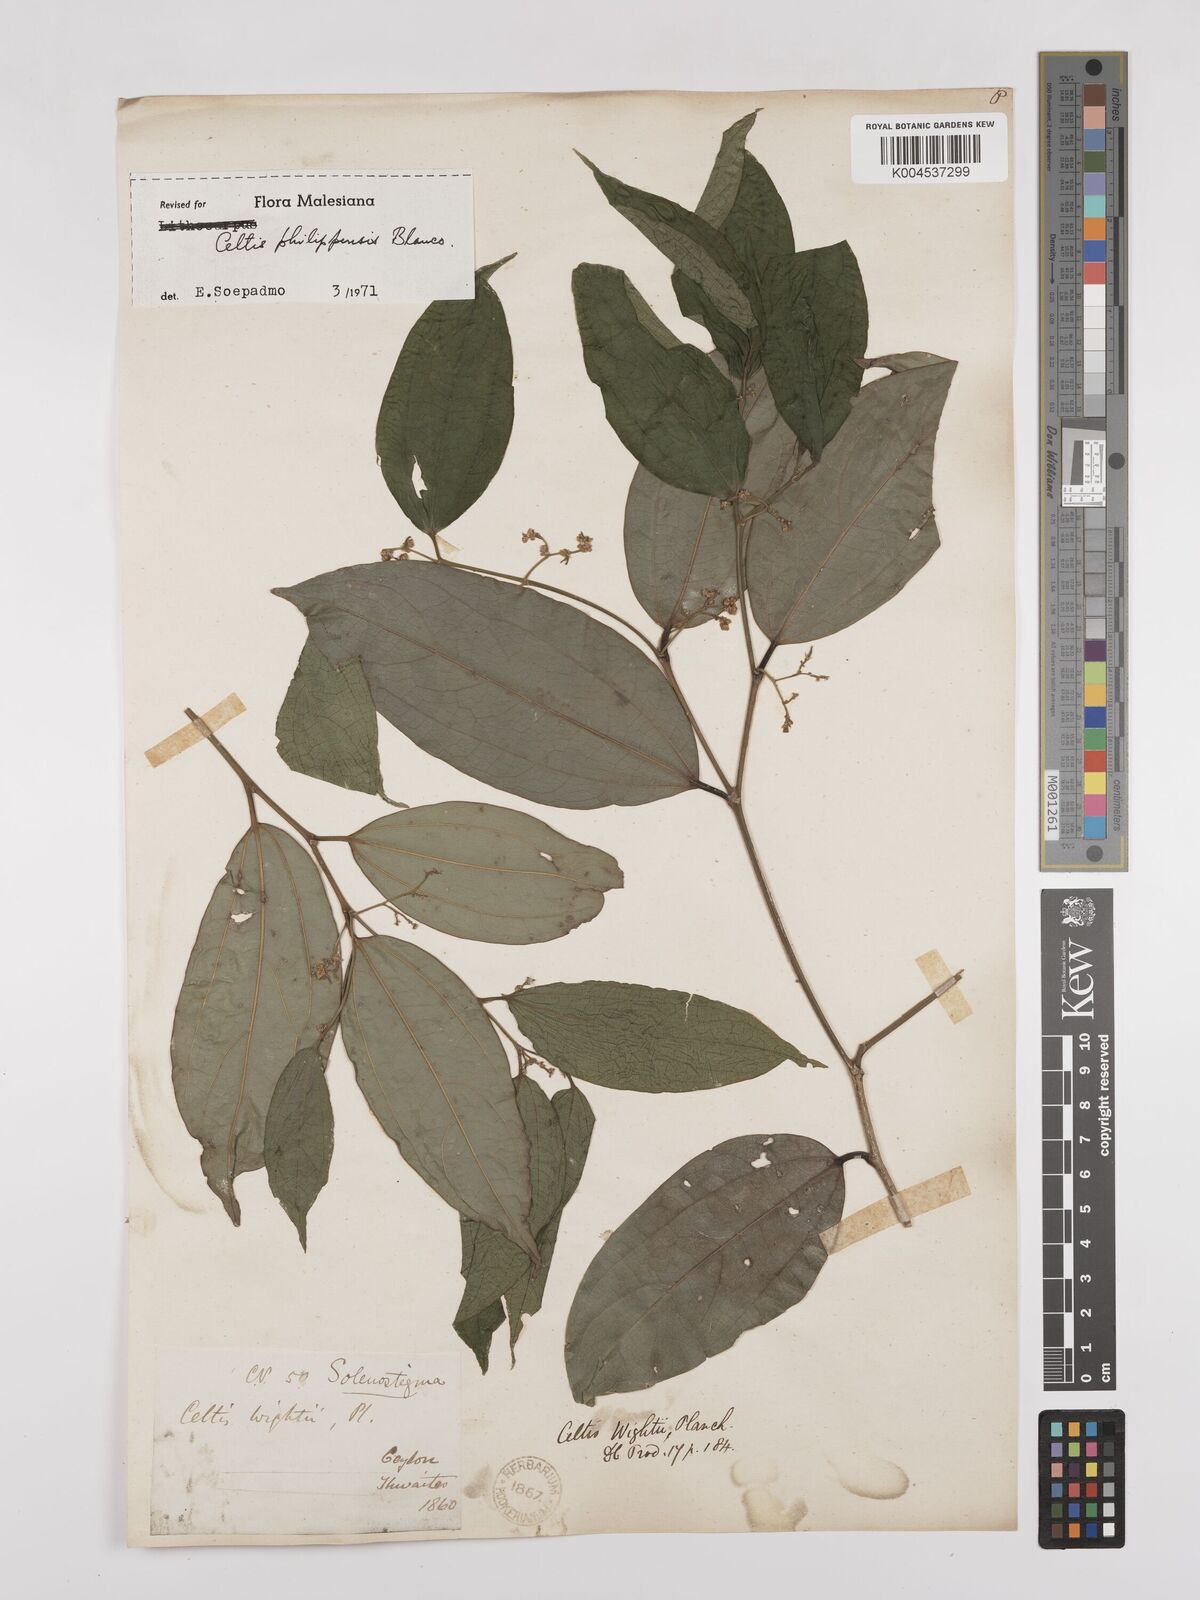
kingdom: Plantae
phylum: Tracheophyta
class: Magnoliopsida
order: Rosales
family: Cannabaceae
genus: Celtis
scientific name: Celtis philippensis
